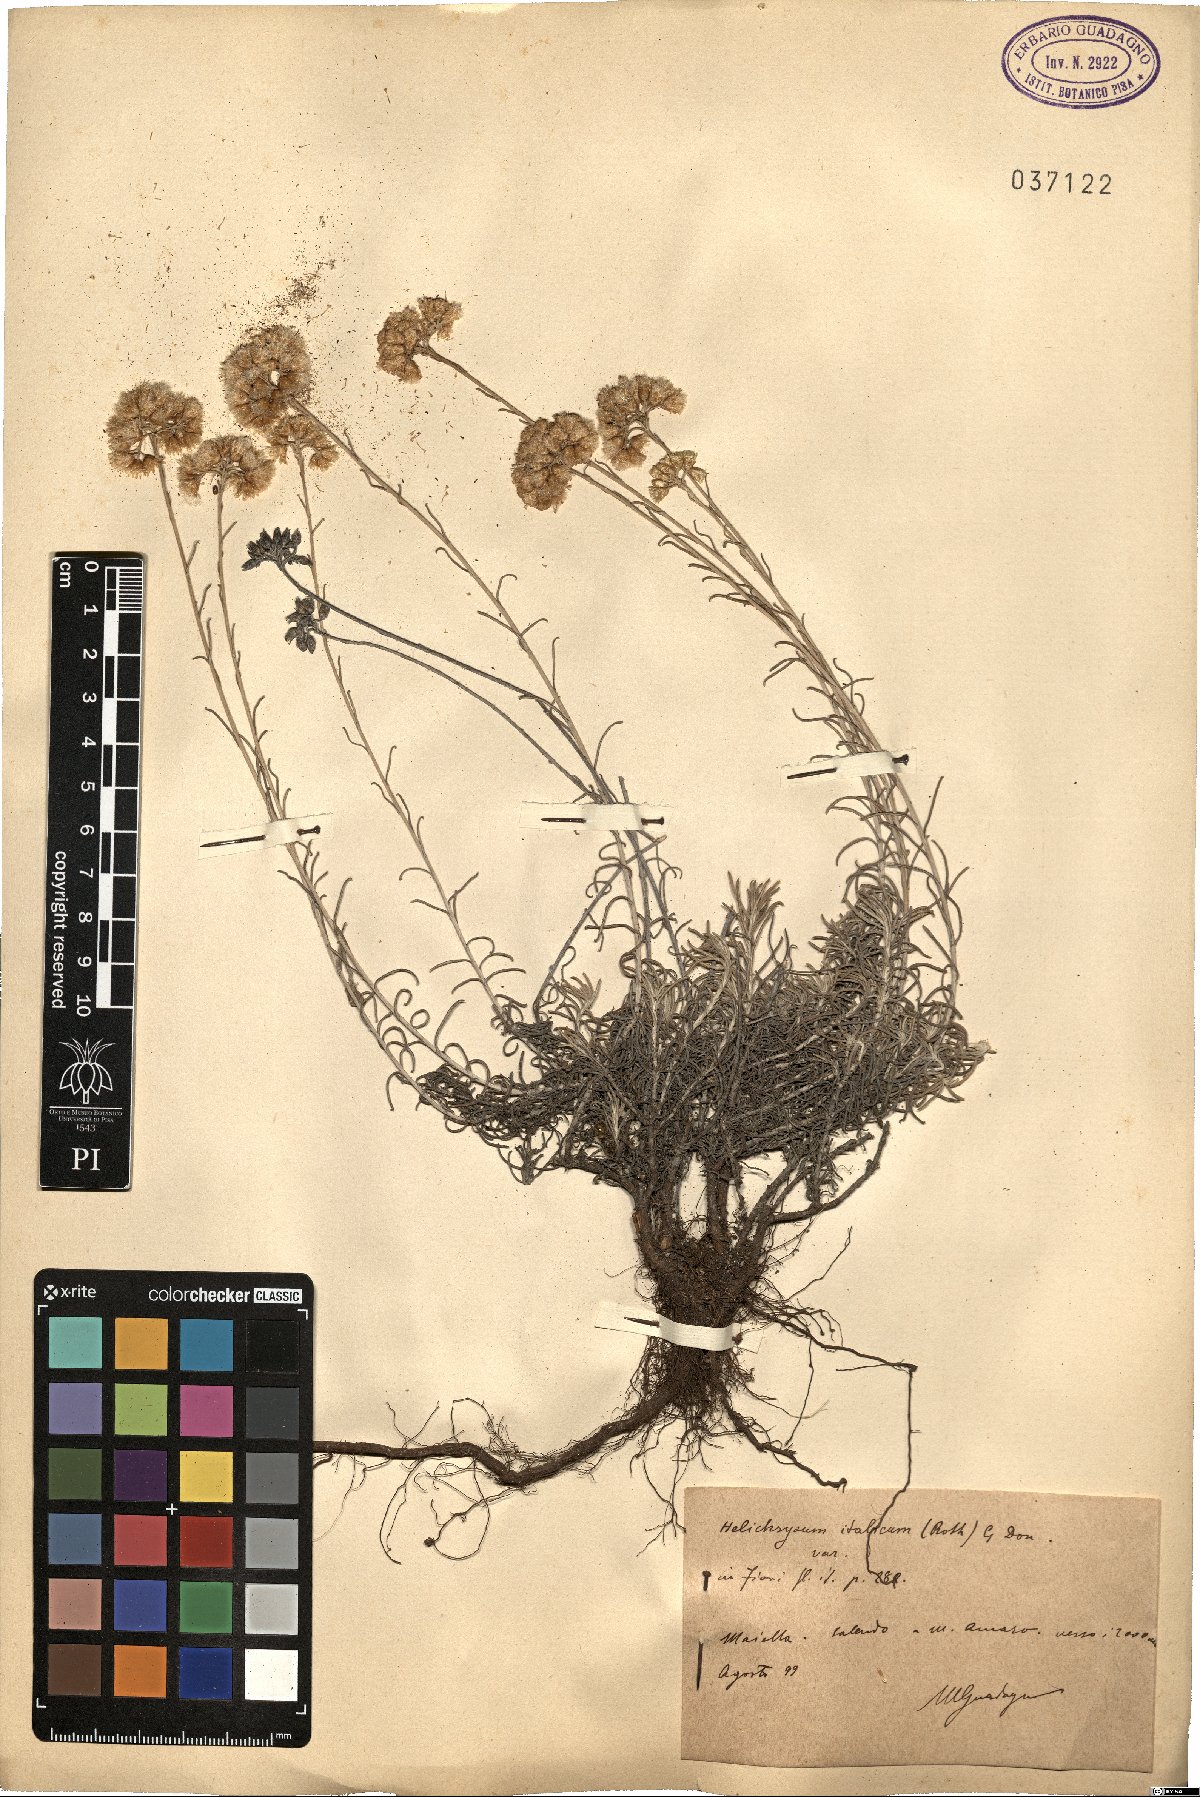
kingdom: Plantae
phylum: Tracheophyta
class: Magnoliopsida
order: Asterales
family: Asteraceae
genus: Helichrysum
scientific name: Helichrysum italicum
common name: Curryplant
